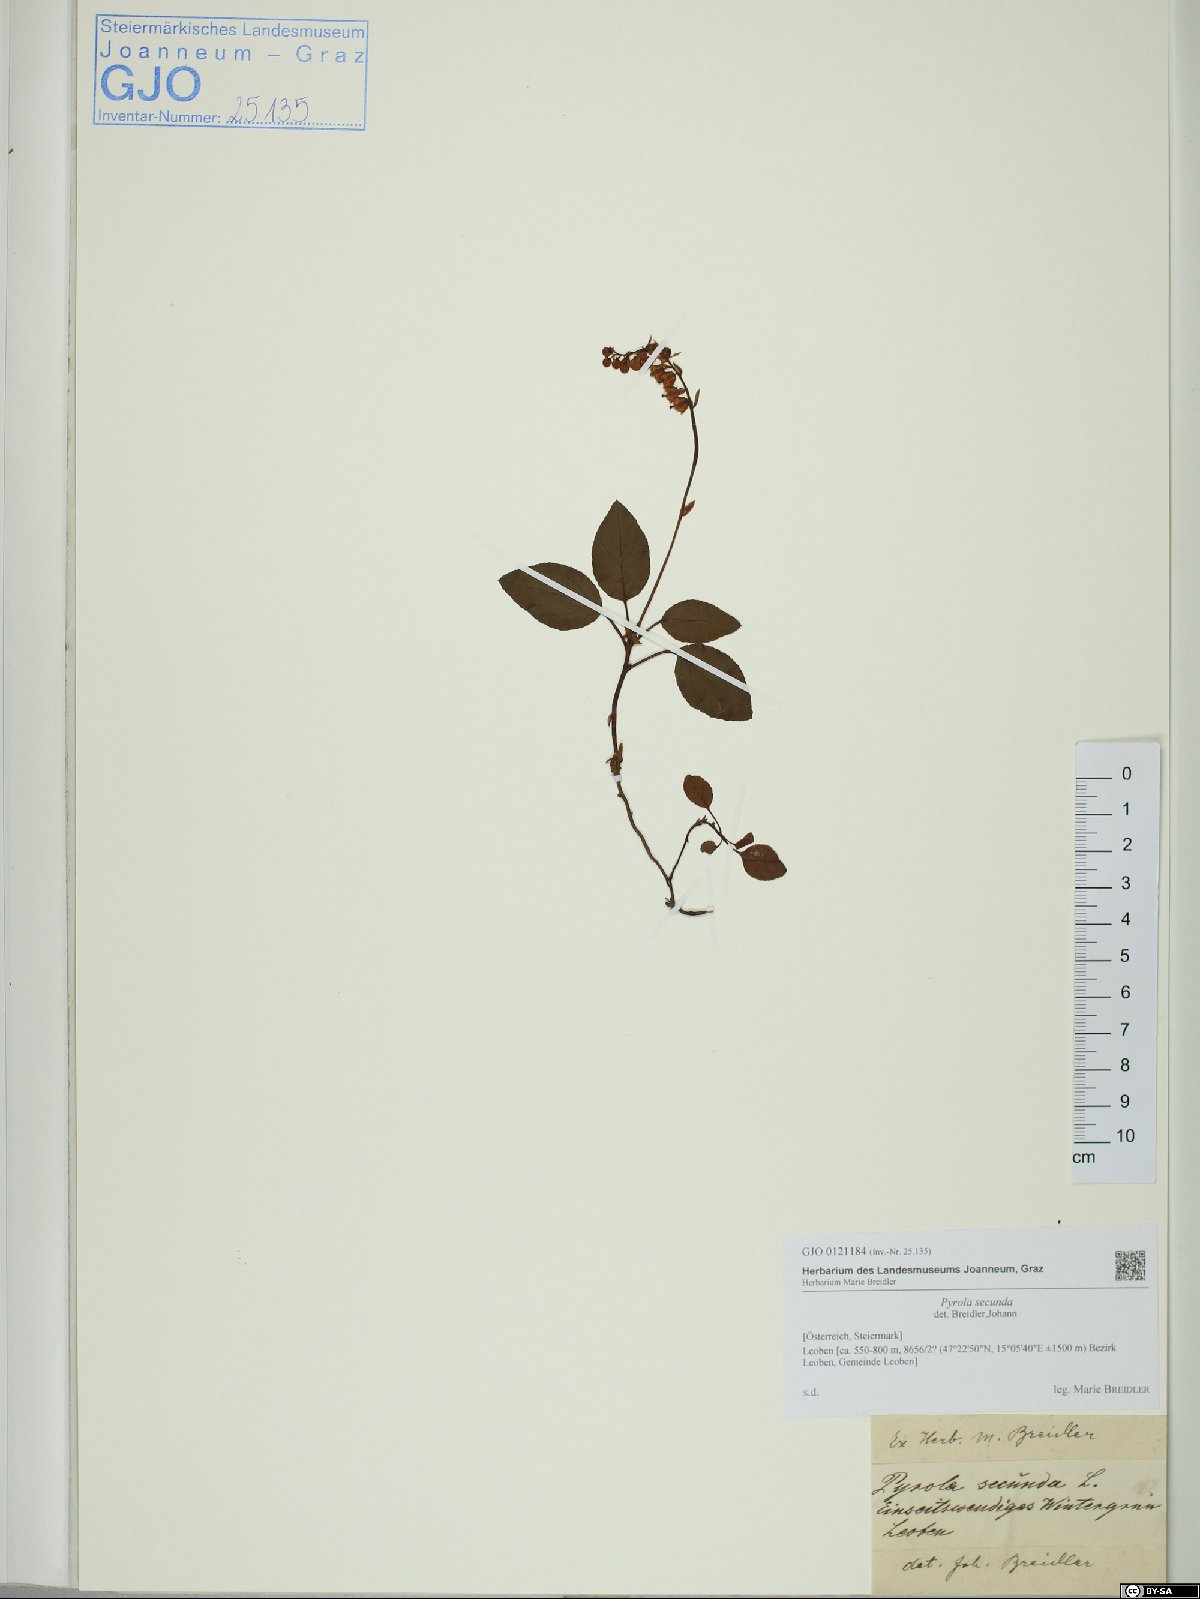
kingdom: Plantae
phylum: Tracheophyta
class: Magnoliopsida
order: Ericales
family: Ericaceae
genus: Orthilia
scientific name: Orthilia secunda
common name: One-sided orthilia
